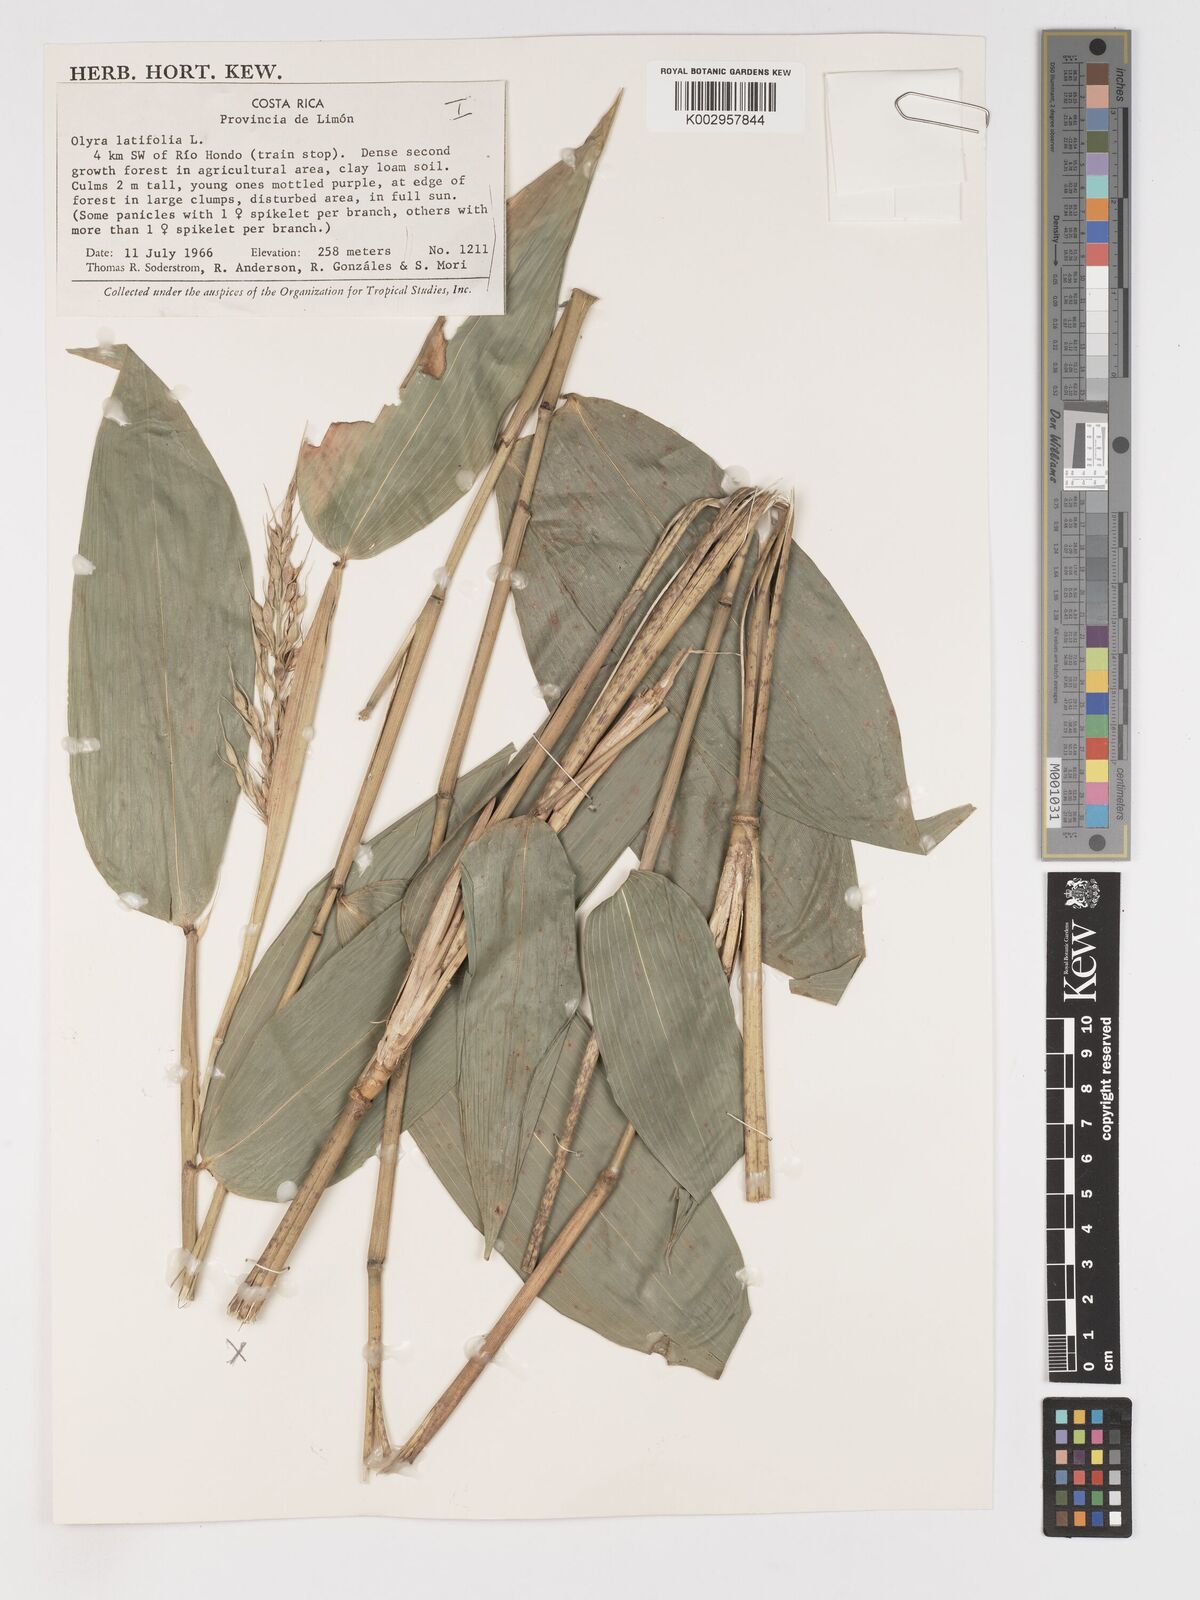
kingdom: Plantae
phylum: Tracheophyta
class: Liliopsida
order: Poales
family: Poaceae
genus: Olyra
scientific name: Olyra latifolia
